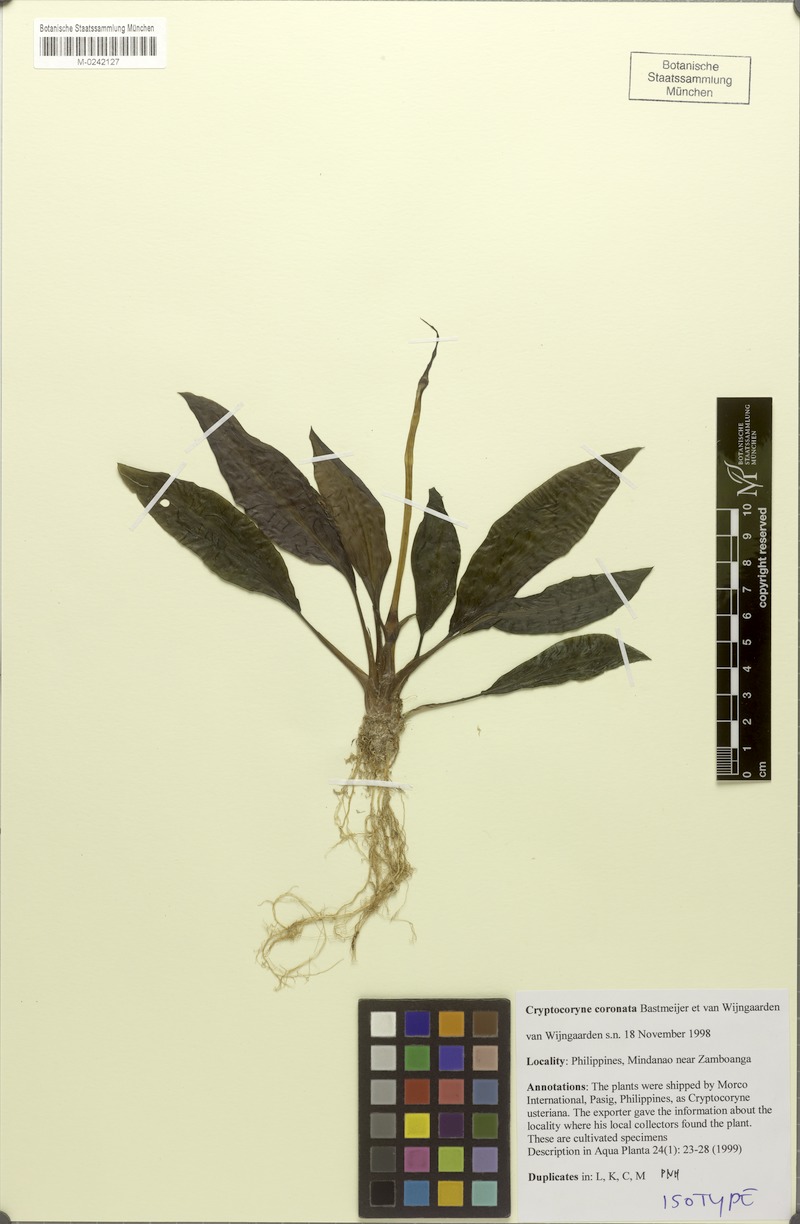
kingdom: Plantae
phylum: Tracheophyta
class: Liliopsida
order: Alismatales
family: Araceae
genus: Cryptocoryne
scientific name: Cryptocoryne coronata
